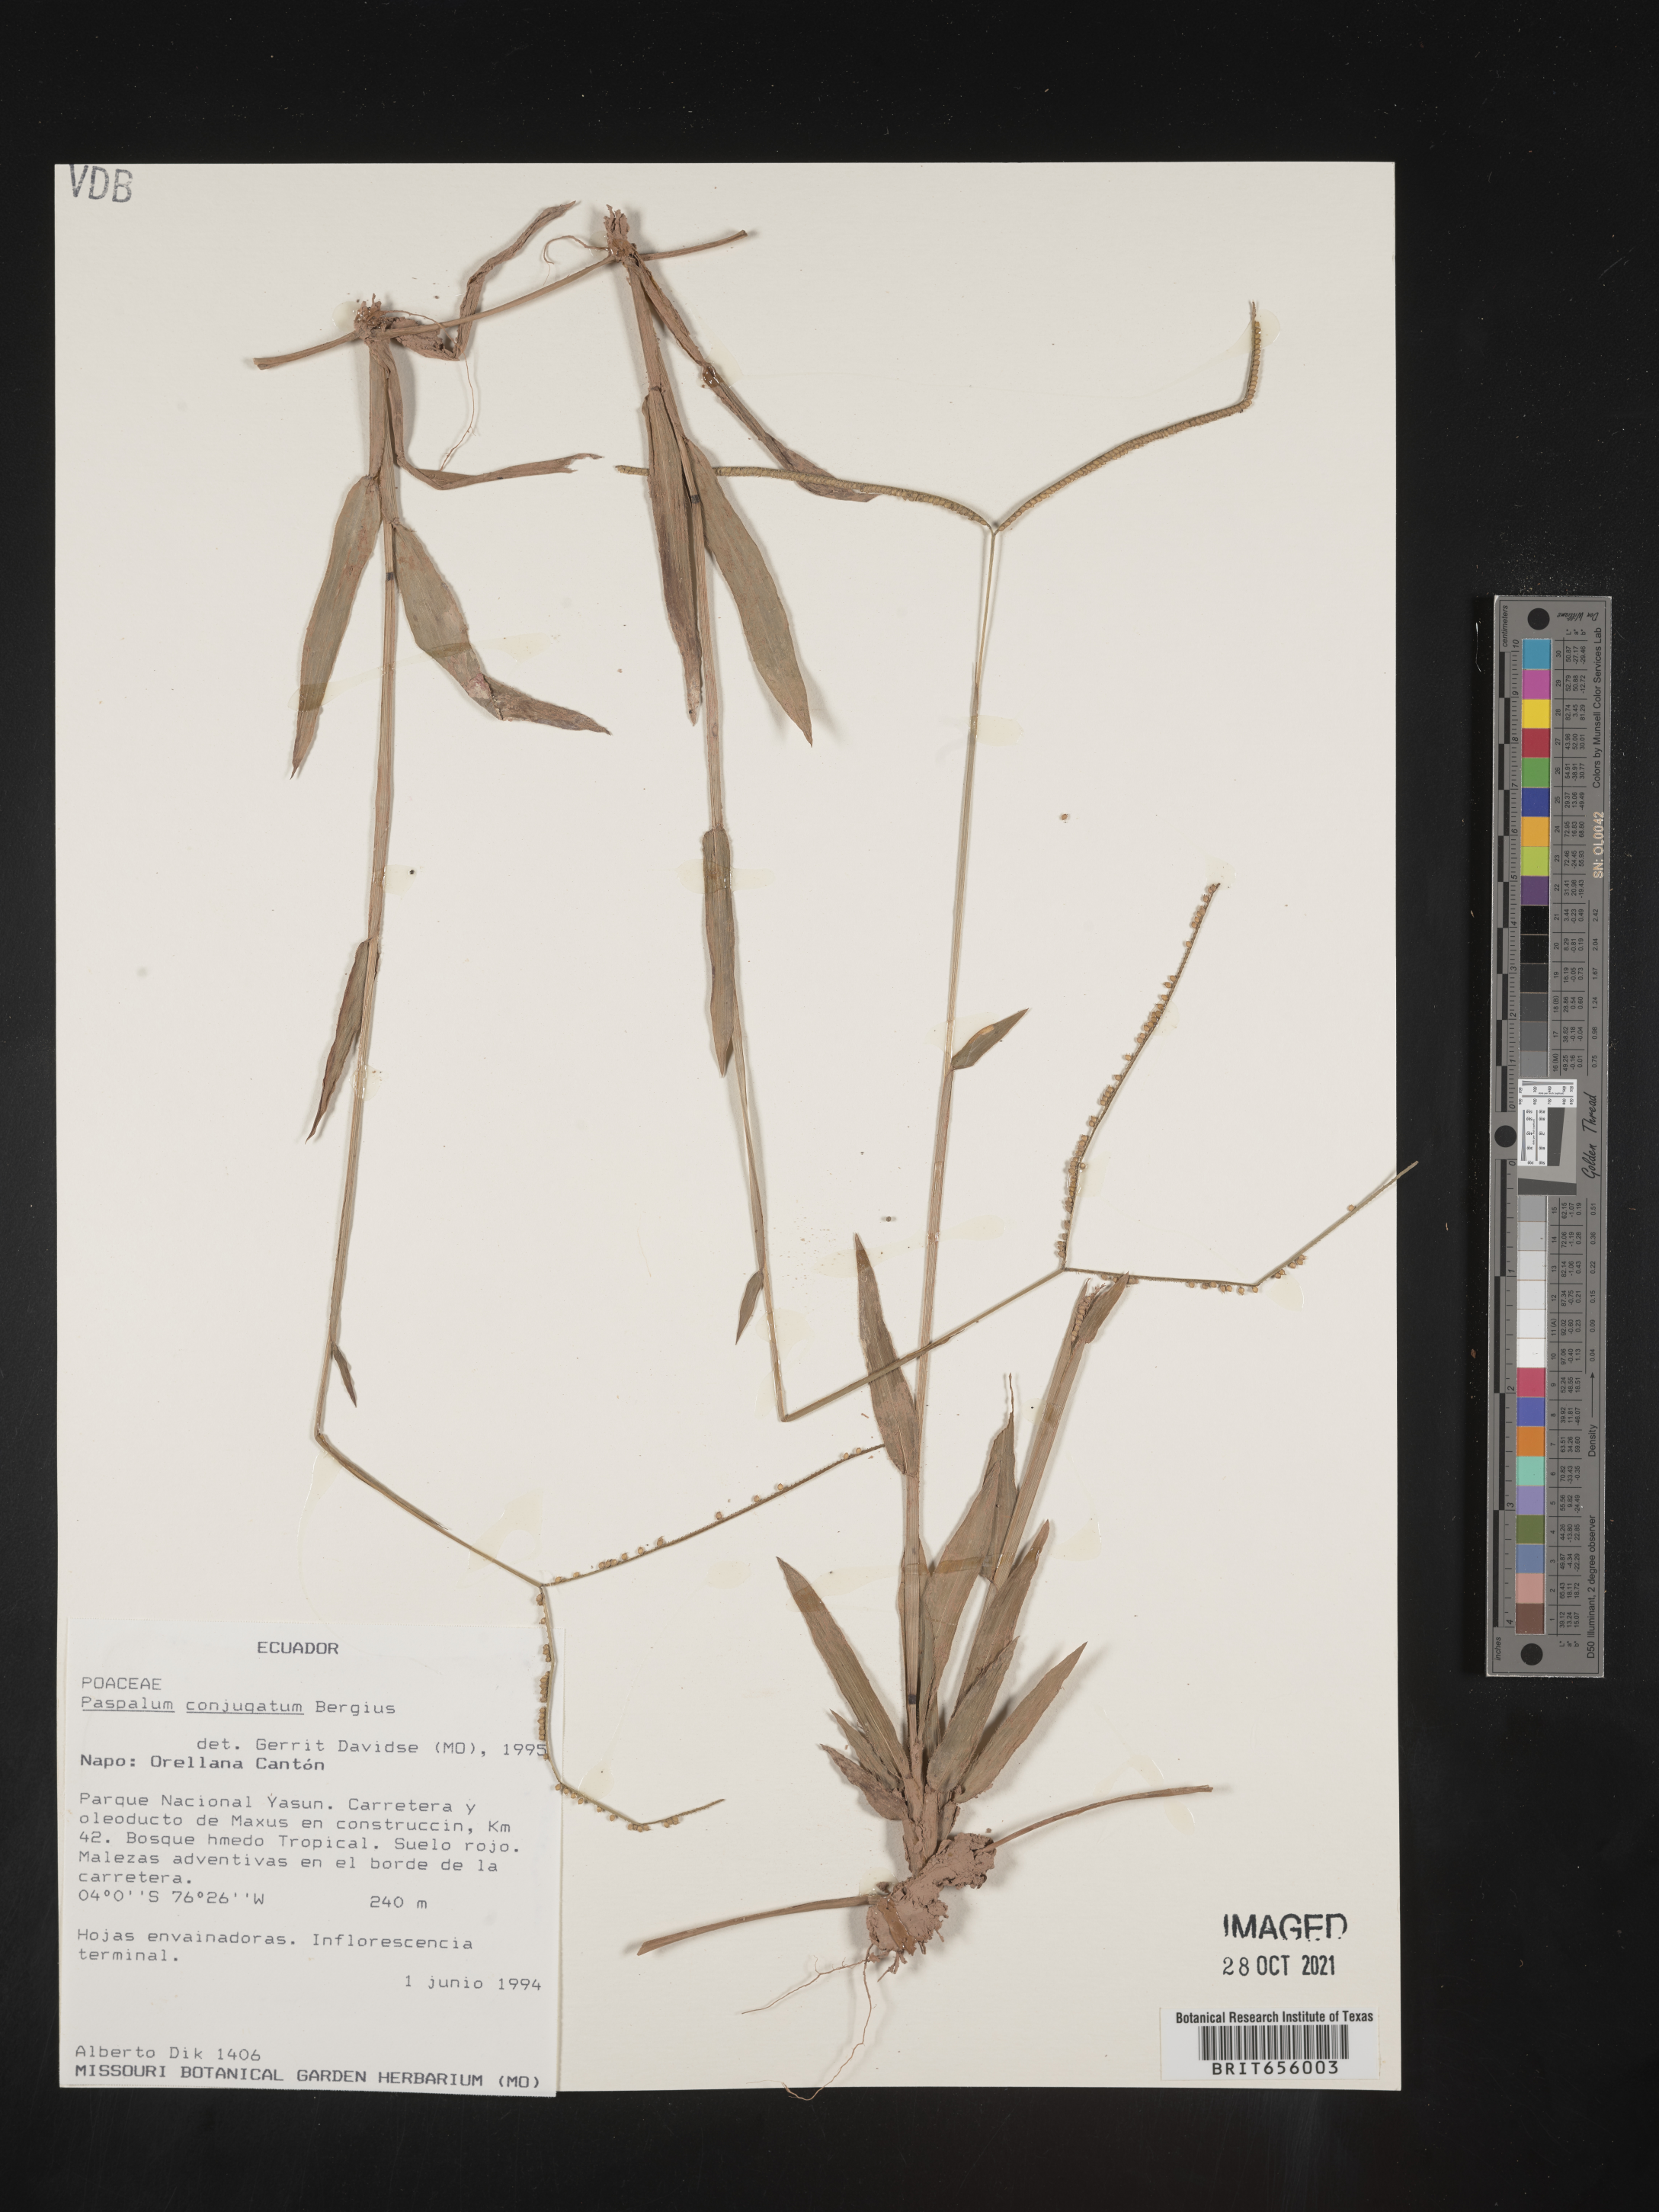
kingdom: Plantae
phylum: Tracheophyta
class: Liliopsida
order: Poales
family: Poaceae
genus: Paspalum
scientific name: Paspalum
